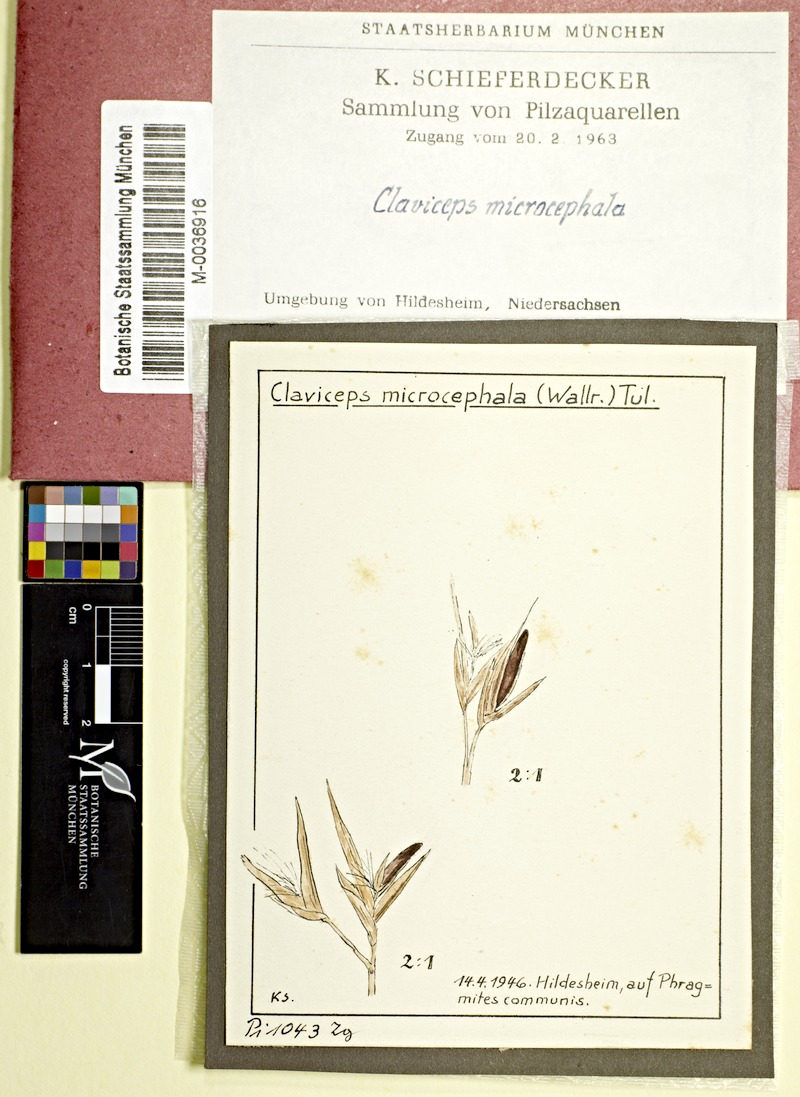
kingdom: Plantae
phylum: Tracheophyta
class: Liliopsida
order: Poales
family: Poaceae
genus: Phragmites
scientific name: Phragmites australis
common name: Common reed
